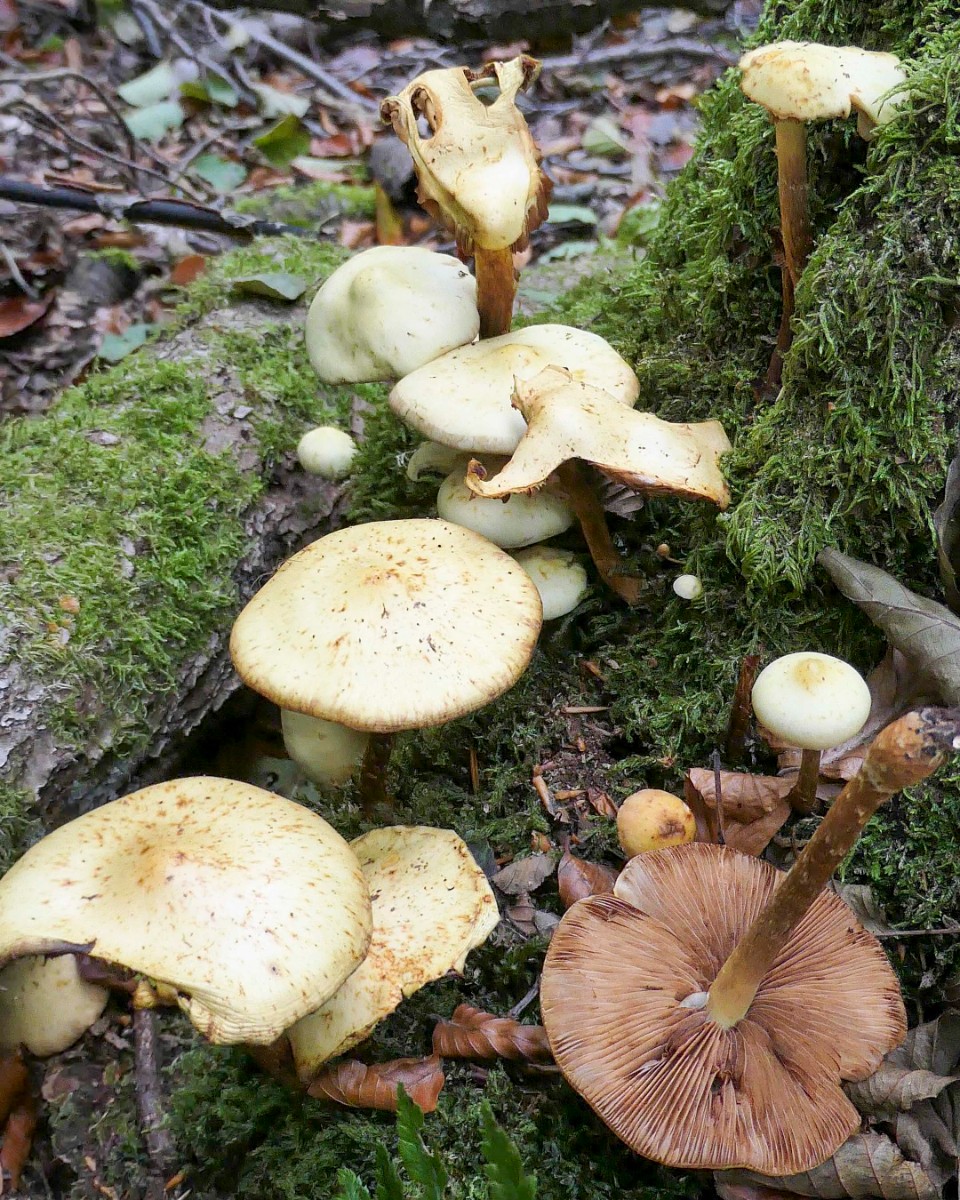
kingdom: Fungi
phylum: Basidiomycota
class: Agaricomycetes
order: Agaricales
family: Hymenogastraceae
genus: Flammula
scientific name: Flammula alnicola
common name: elle-skælhat
